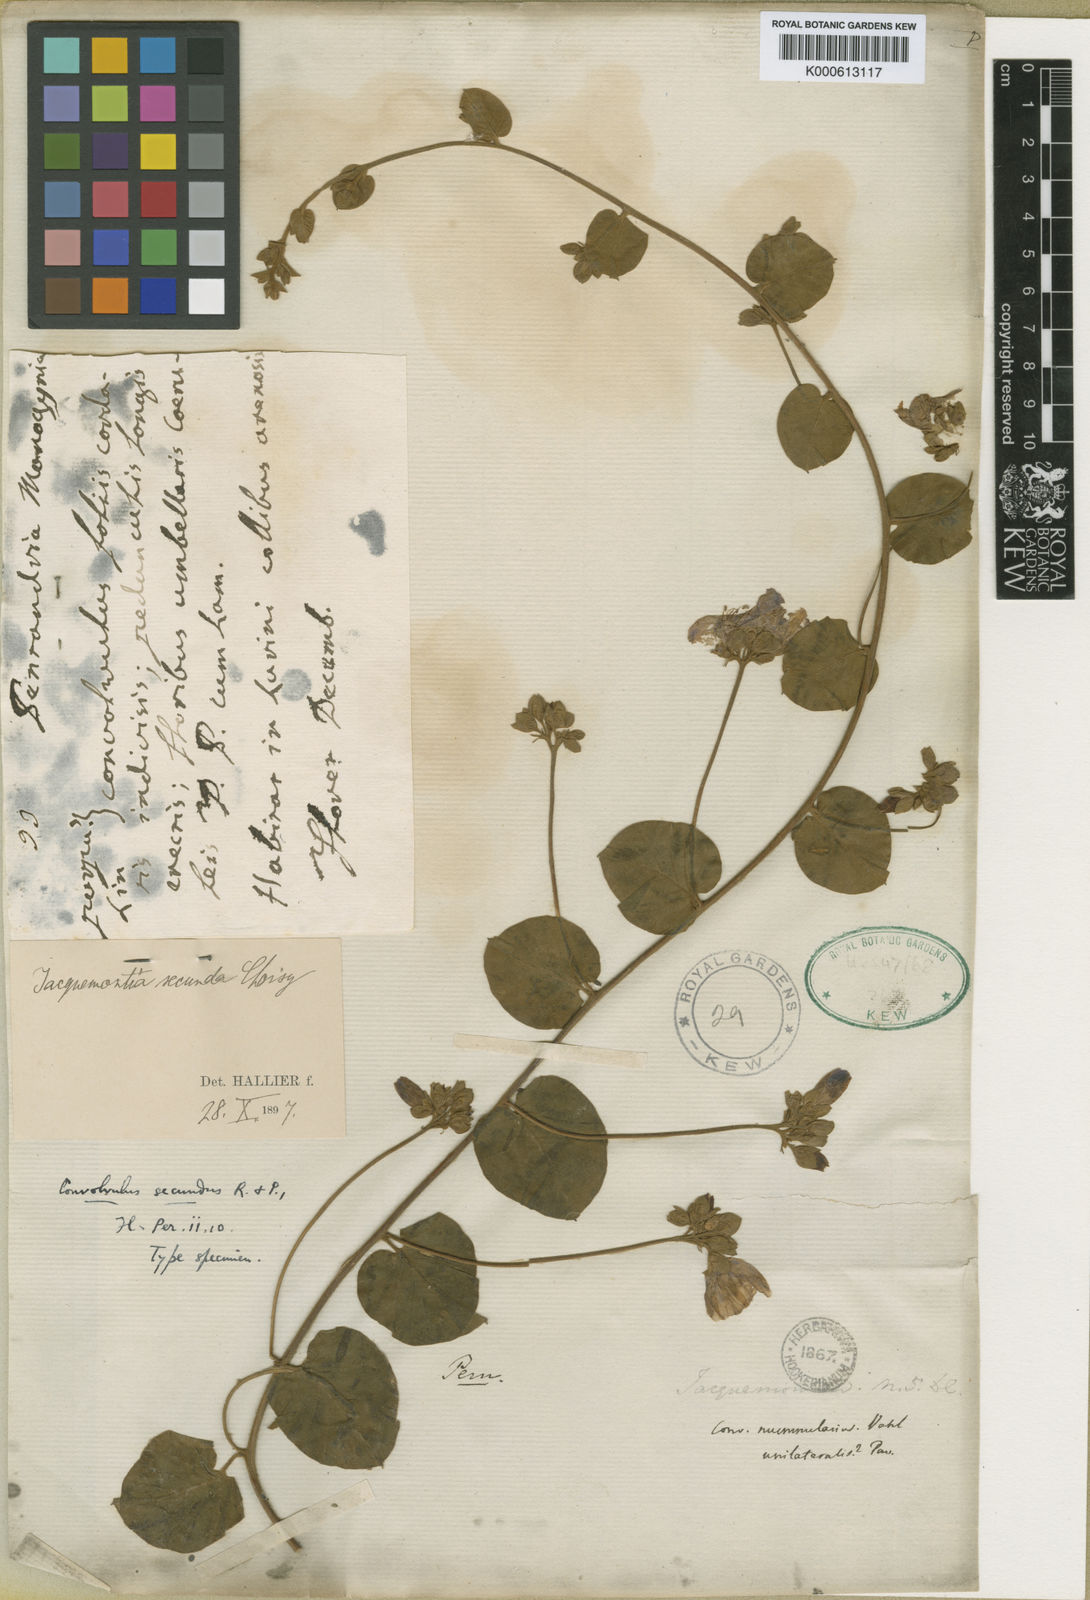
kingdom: Plantae
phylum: Tracheophyta
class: Magnoliopsida
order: Solanales
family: Convolvulaceae
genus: Jacquemontia
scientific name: Jacquemontia unilateralis
